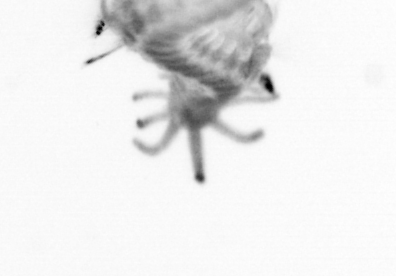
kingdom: Animalia
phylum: Annelida
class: Polychaeta
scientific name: Polychaeta
